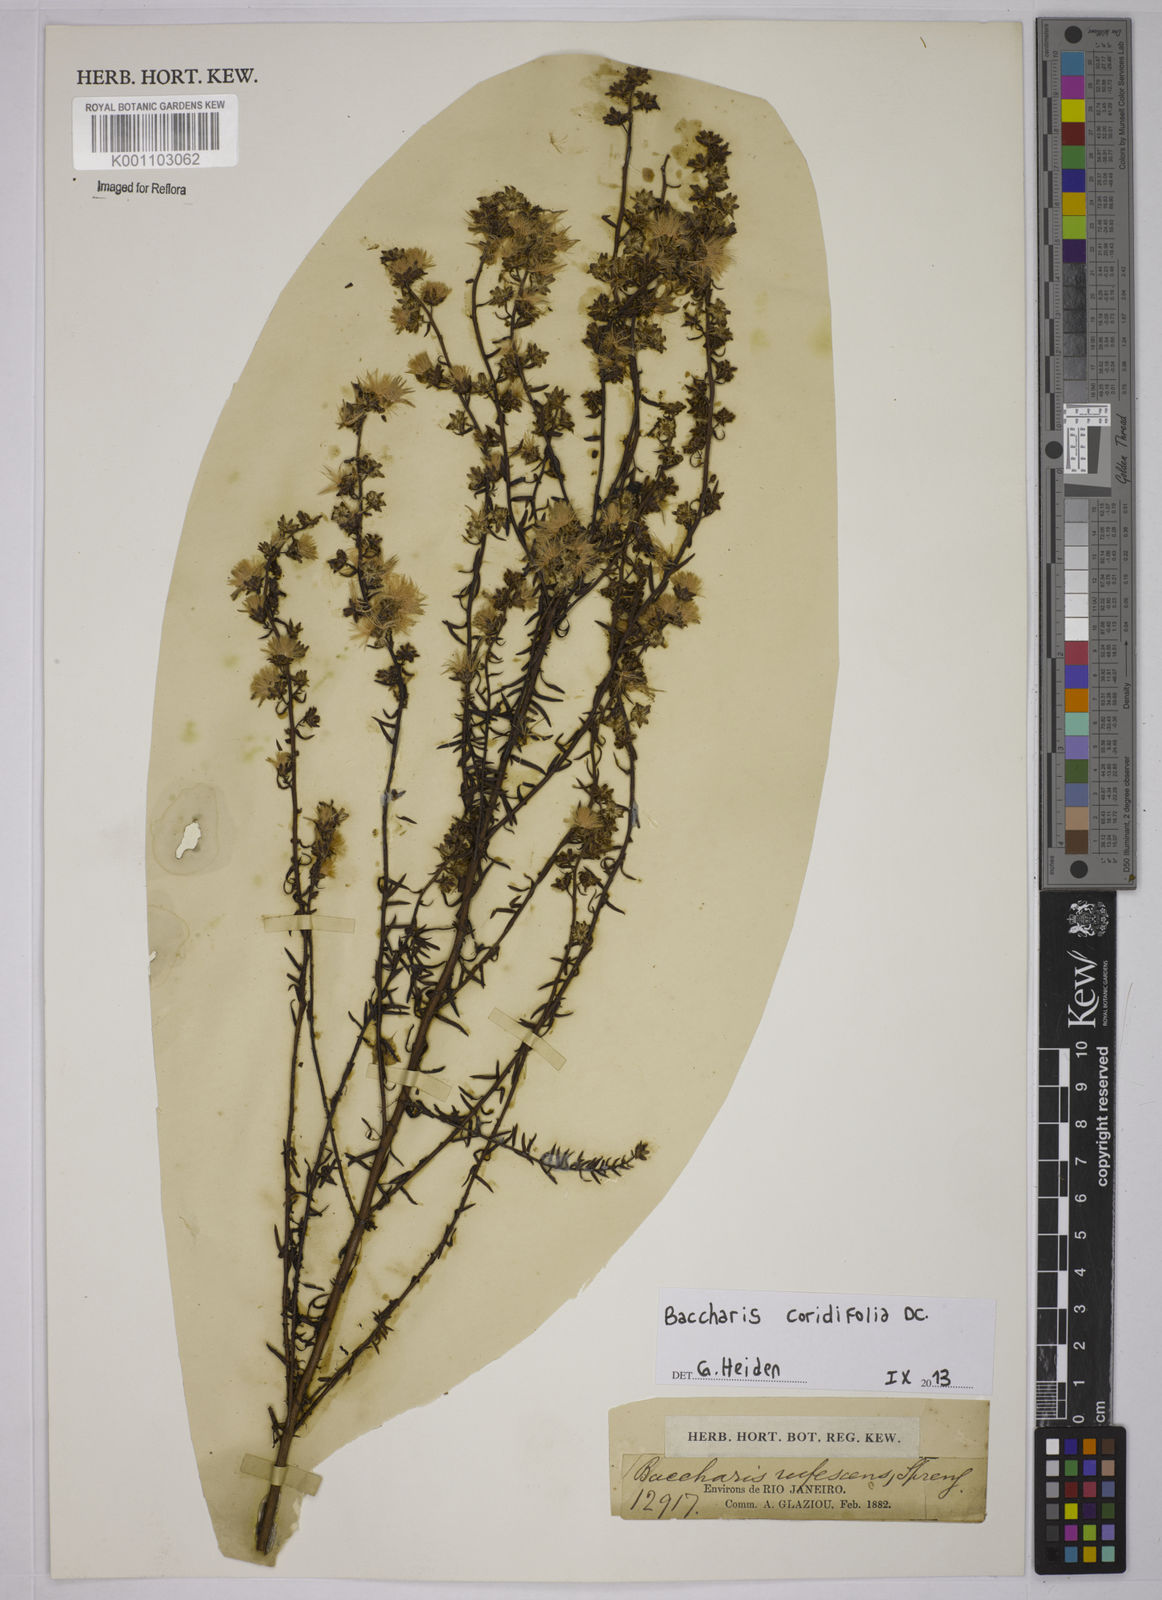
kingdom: Plantae
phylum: Tracheophyta
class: Magnoliopsida
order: Asterales
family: Asteraceae
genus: Baccharis
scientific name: Baccharis coridifolia
